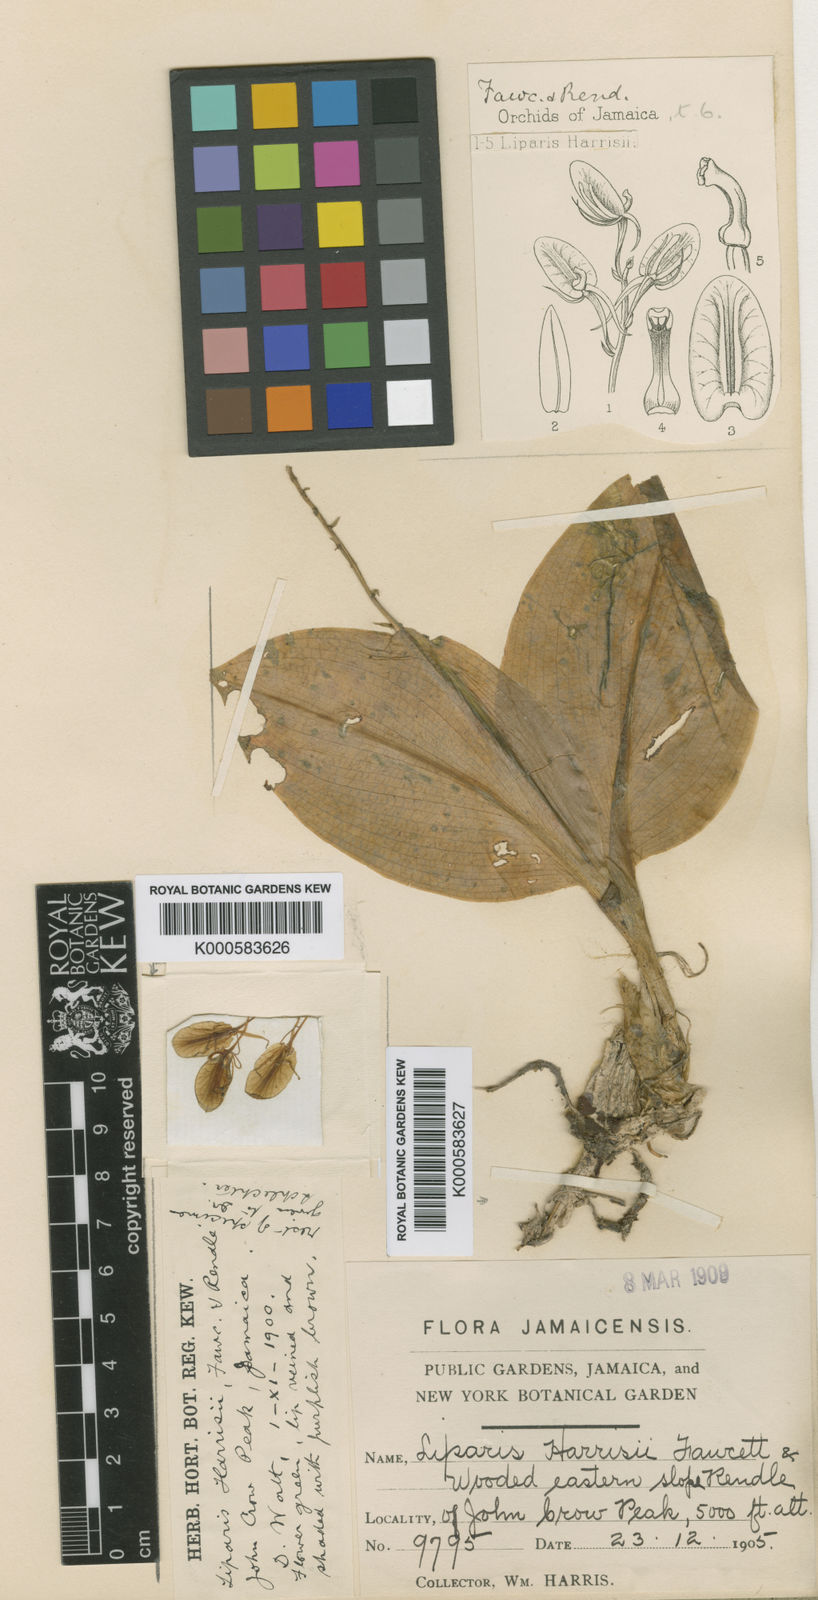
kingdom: Plantae
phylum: Tracheophyta
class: Liliopsida
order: Asparagales
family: Orchidaceae
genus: Liparis
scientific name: Liparis viridipurpurea
